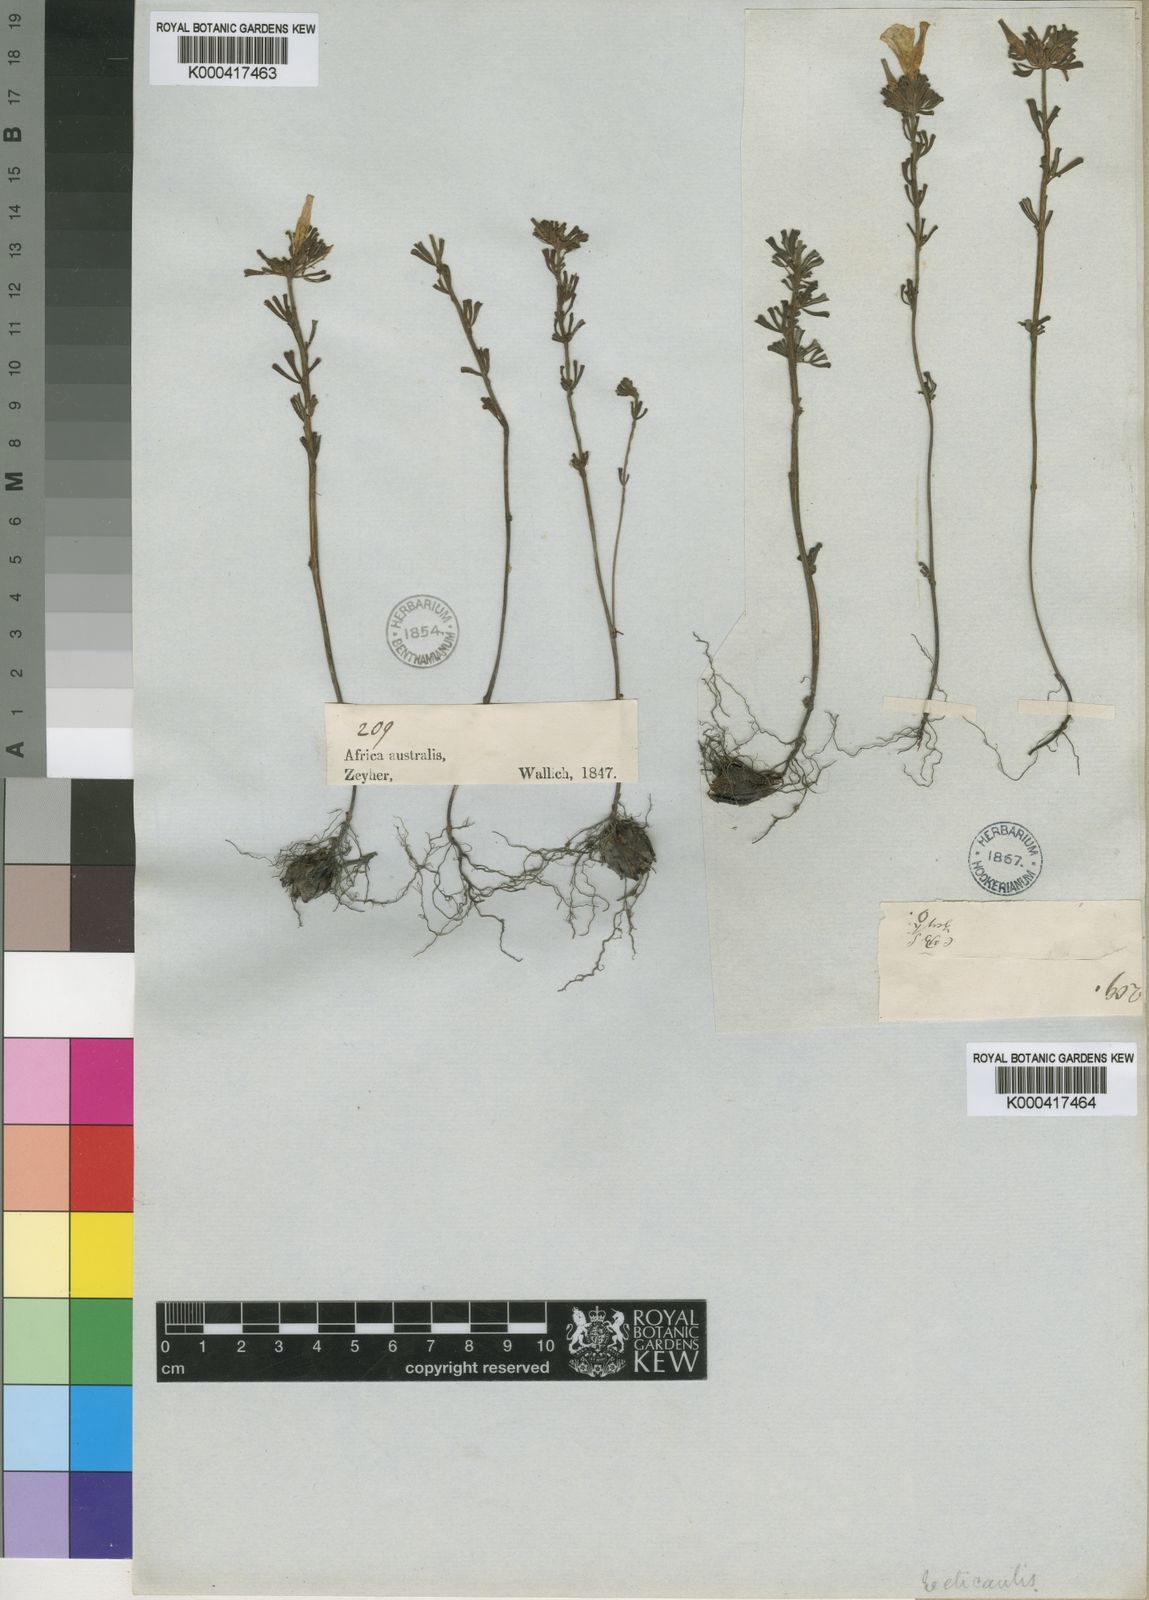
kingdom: Plantae
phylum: Tracheophyta
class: Magnoliopsida
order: Oxalidales
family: Oxalidaceae
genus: Oxalis
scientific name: Oxalis recticaulis
